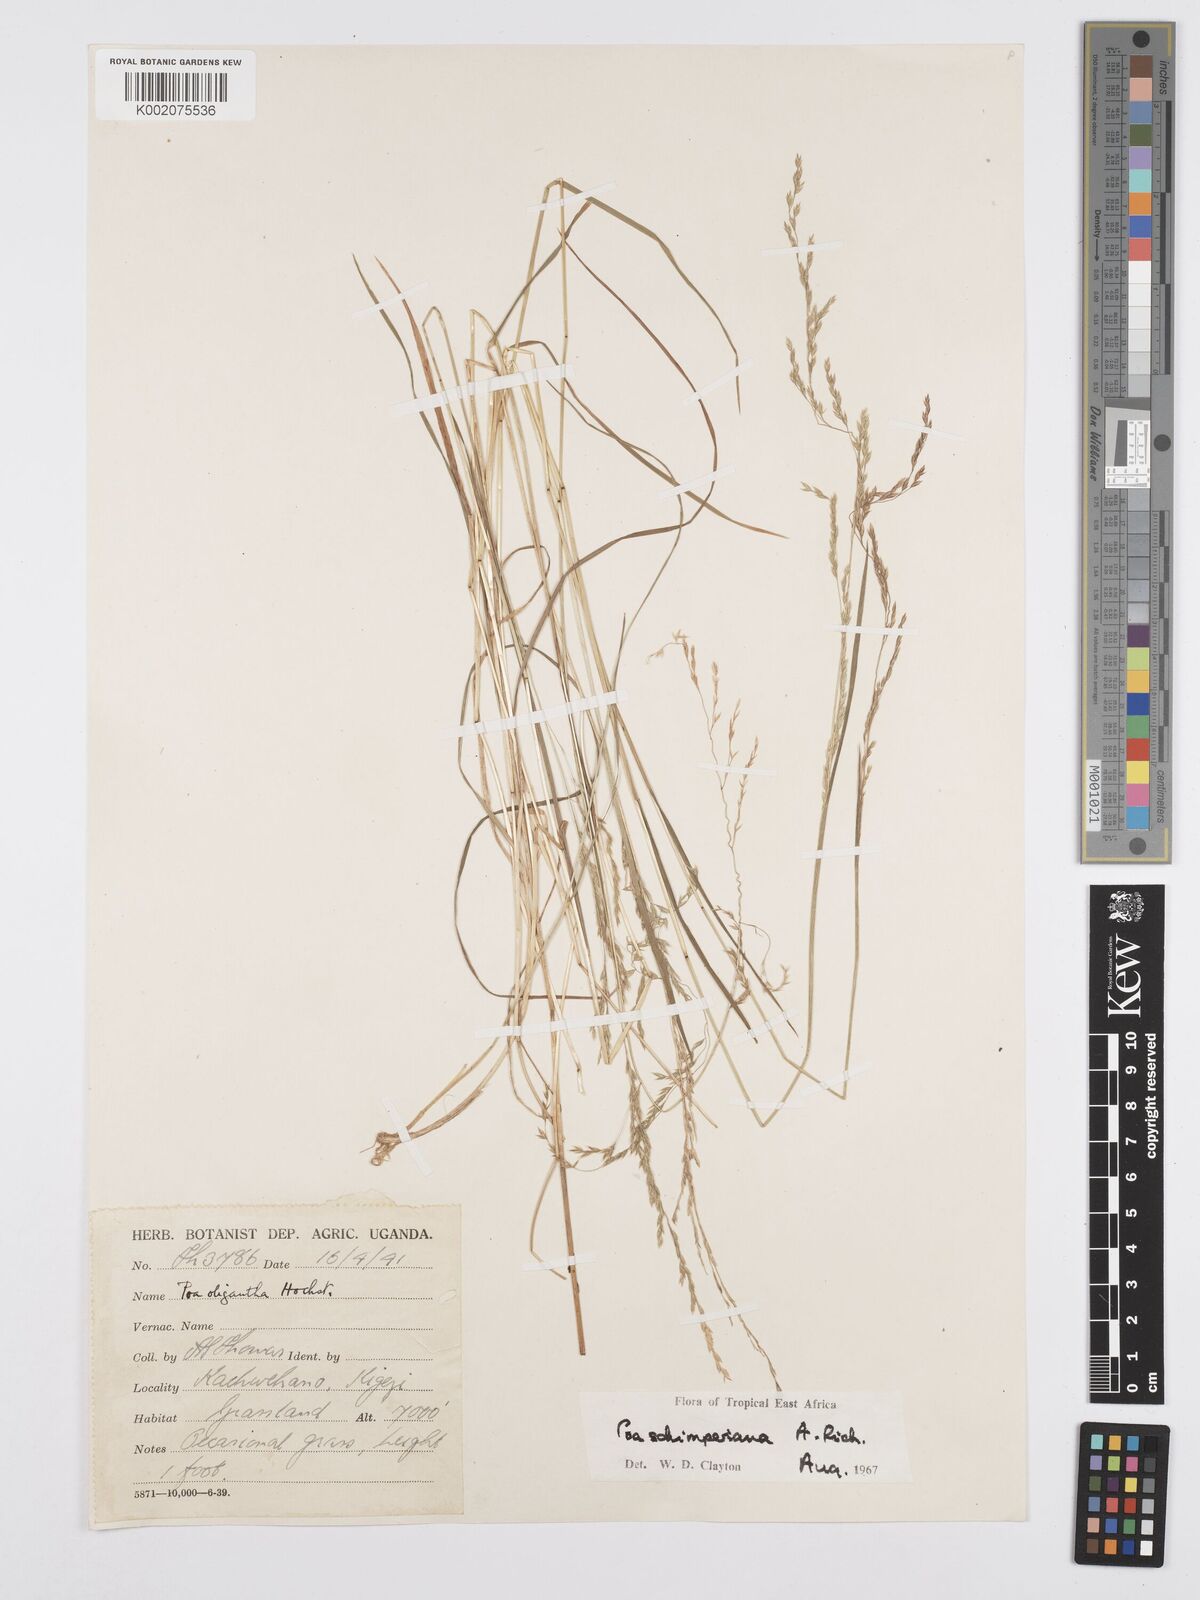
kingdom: Plantae
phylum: Tracheophyta
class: Liliopsida
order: Poales
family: Poaceae
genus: Poa
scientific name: Poa schimperiana
